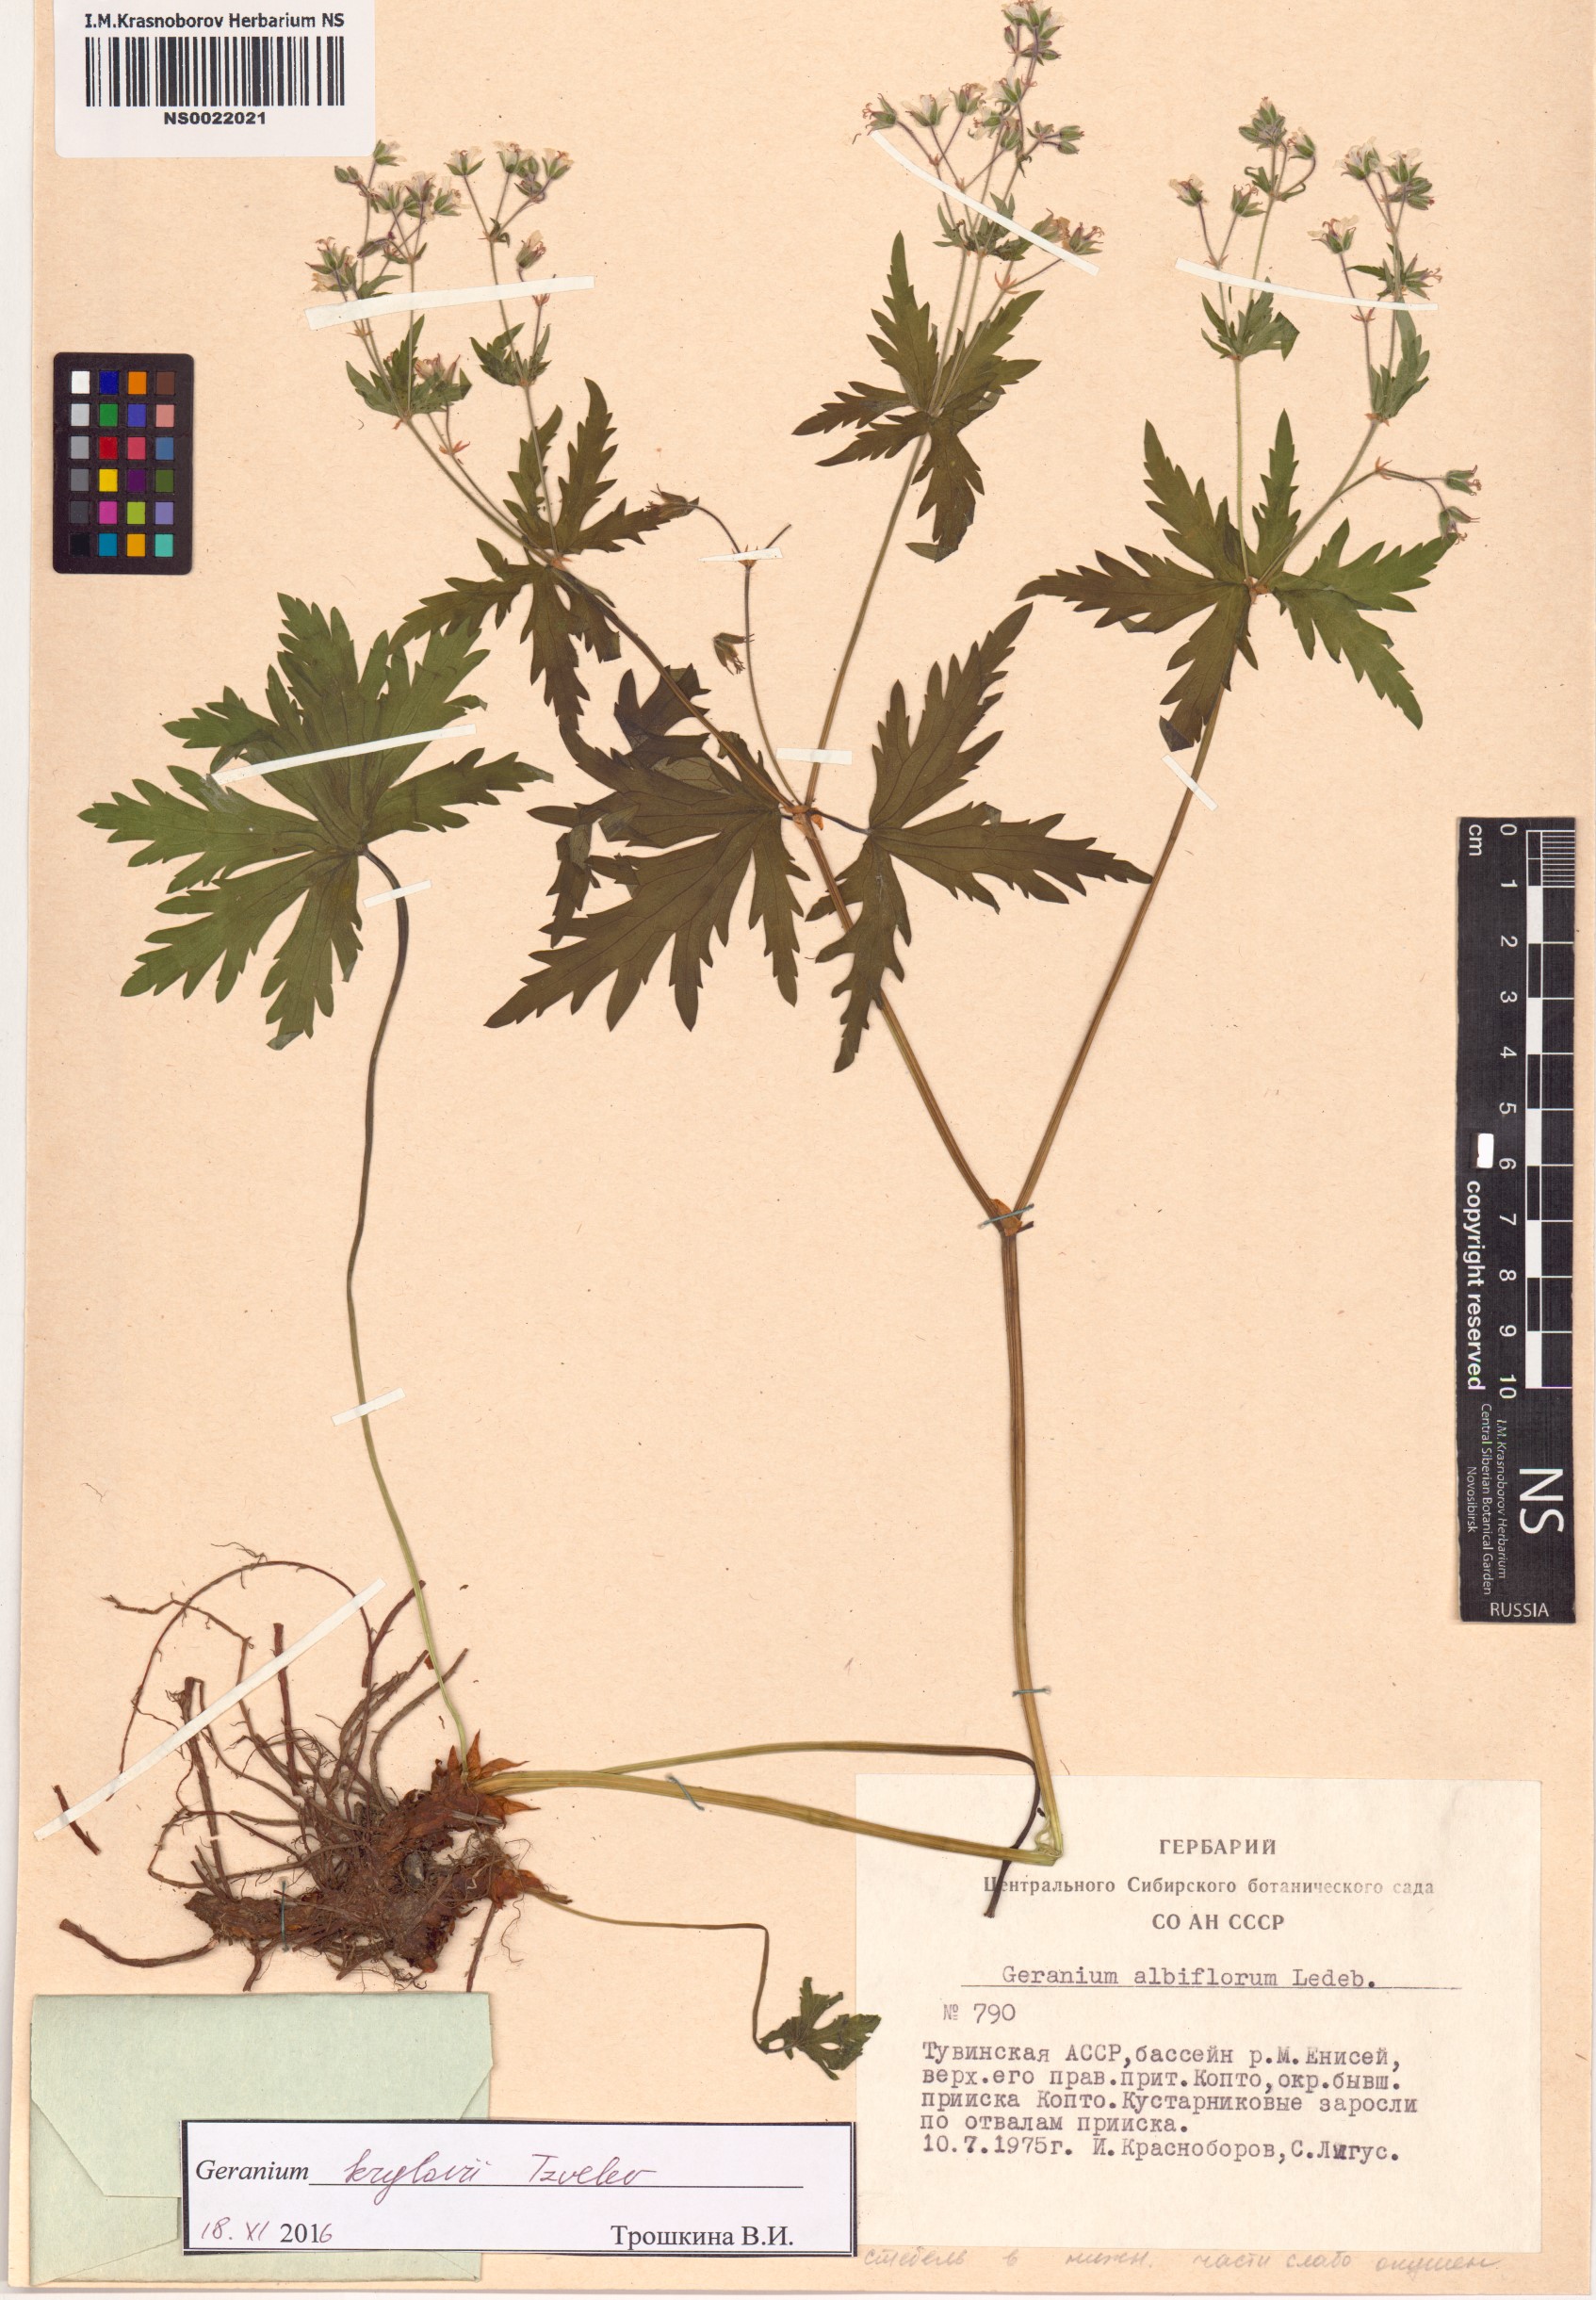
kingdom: Plantae
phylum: Tracheophyta
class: Magnoliopsida
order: Geraniales
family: Geraniaceae
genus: Geranium
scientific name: Geranium sylvaticum
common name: Wood crane's-bill
